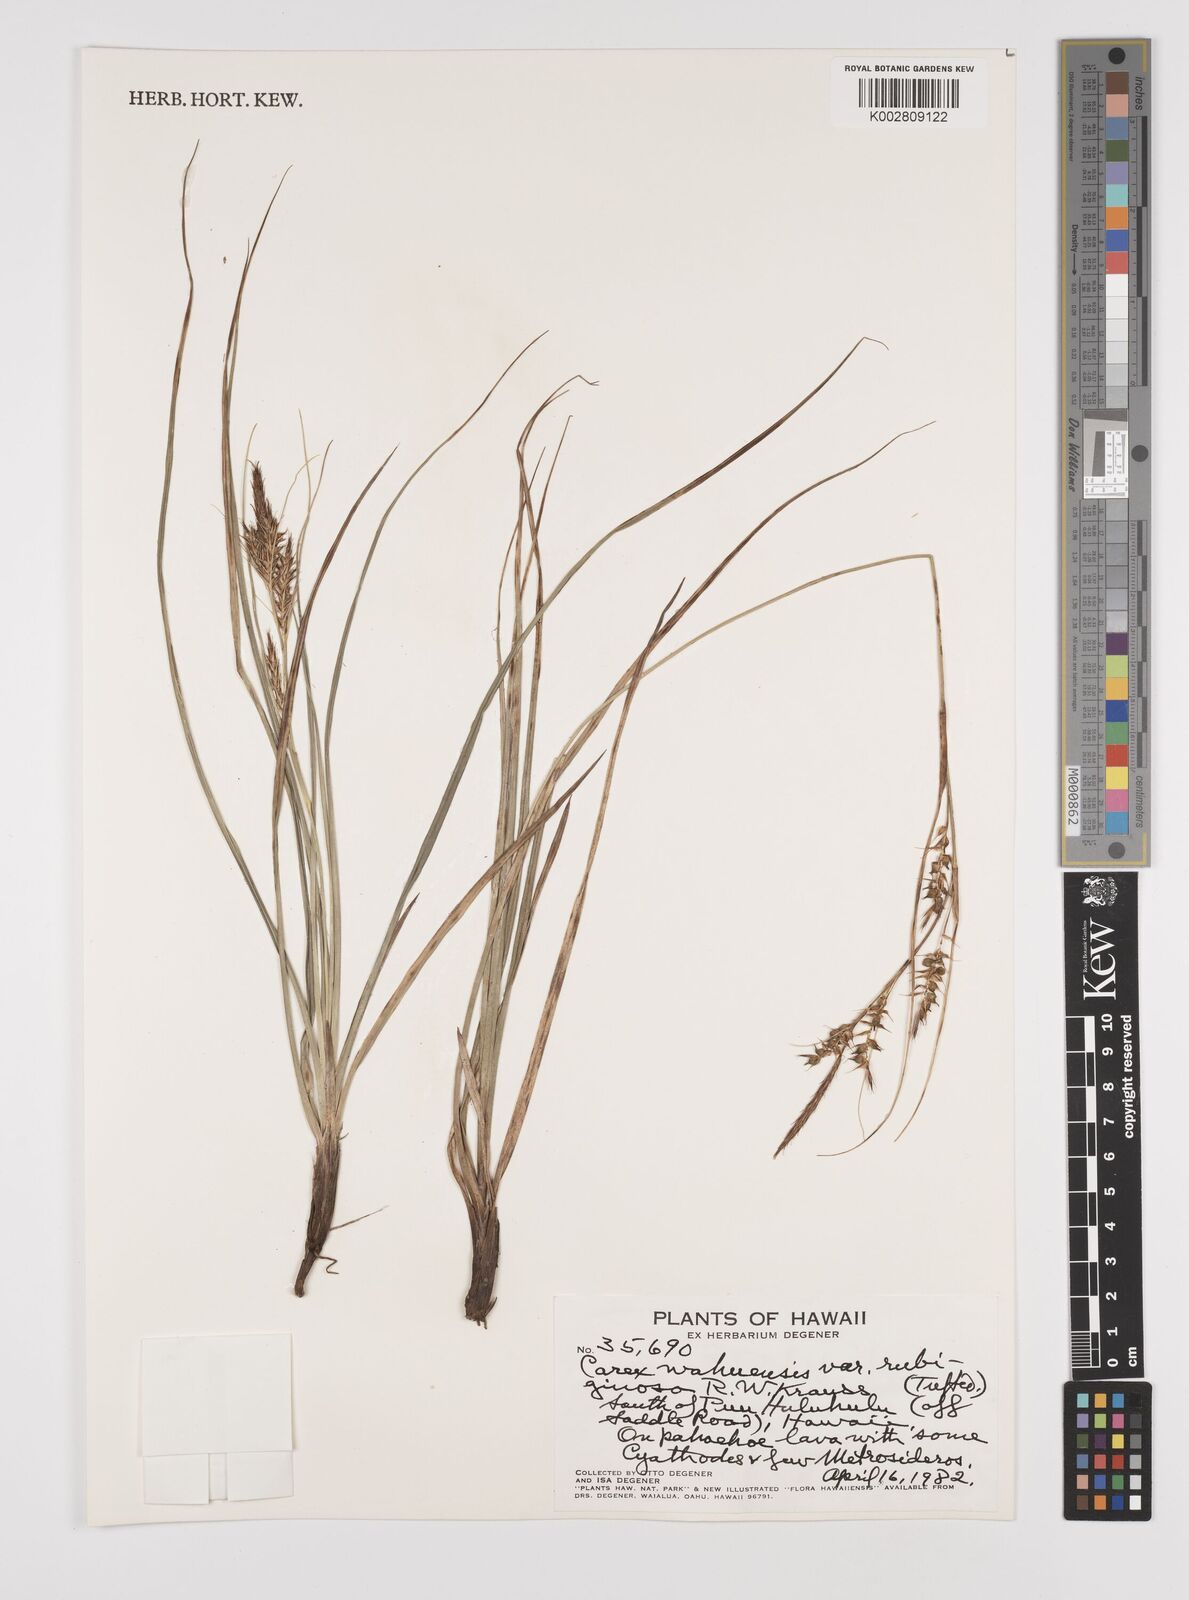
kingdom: Plantae
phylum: Tracheophyta
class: Liliopsida
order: Poales
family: Cyperaceae
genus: Carex
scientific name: Carex wahuensis
